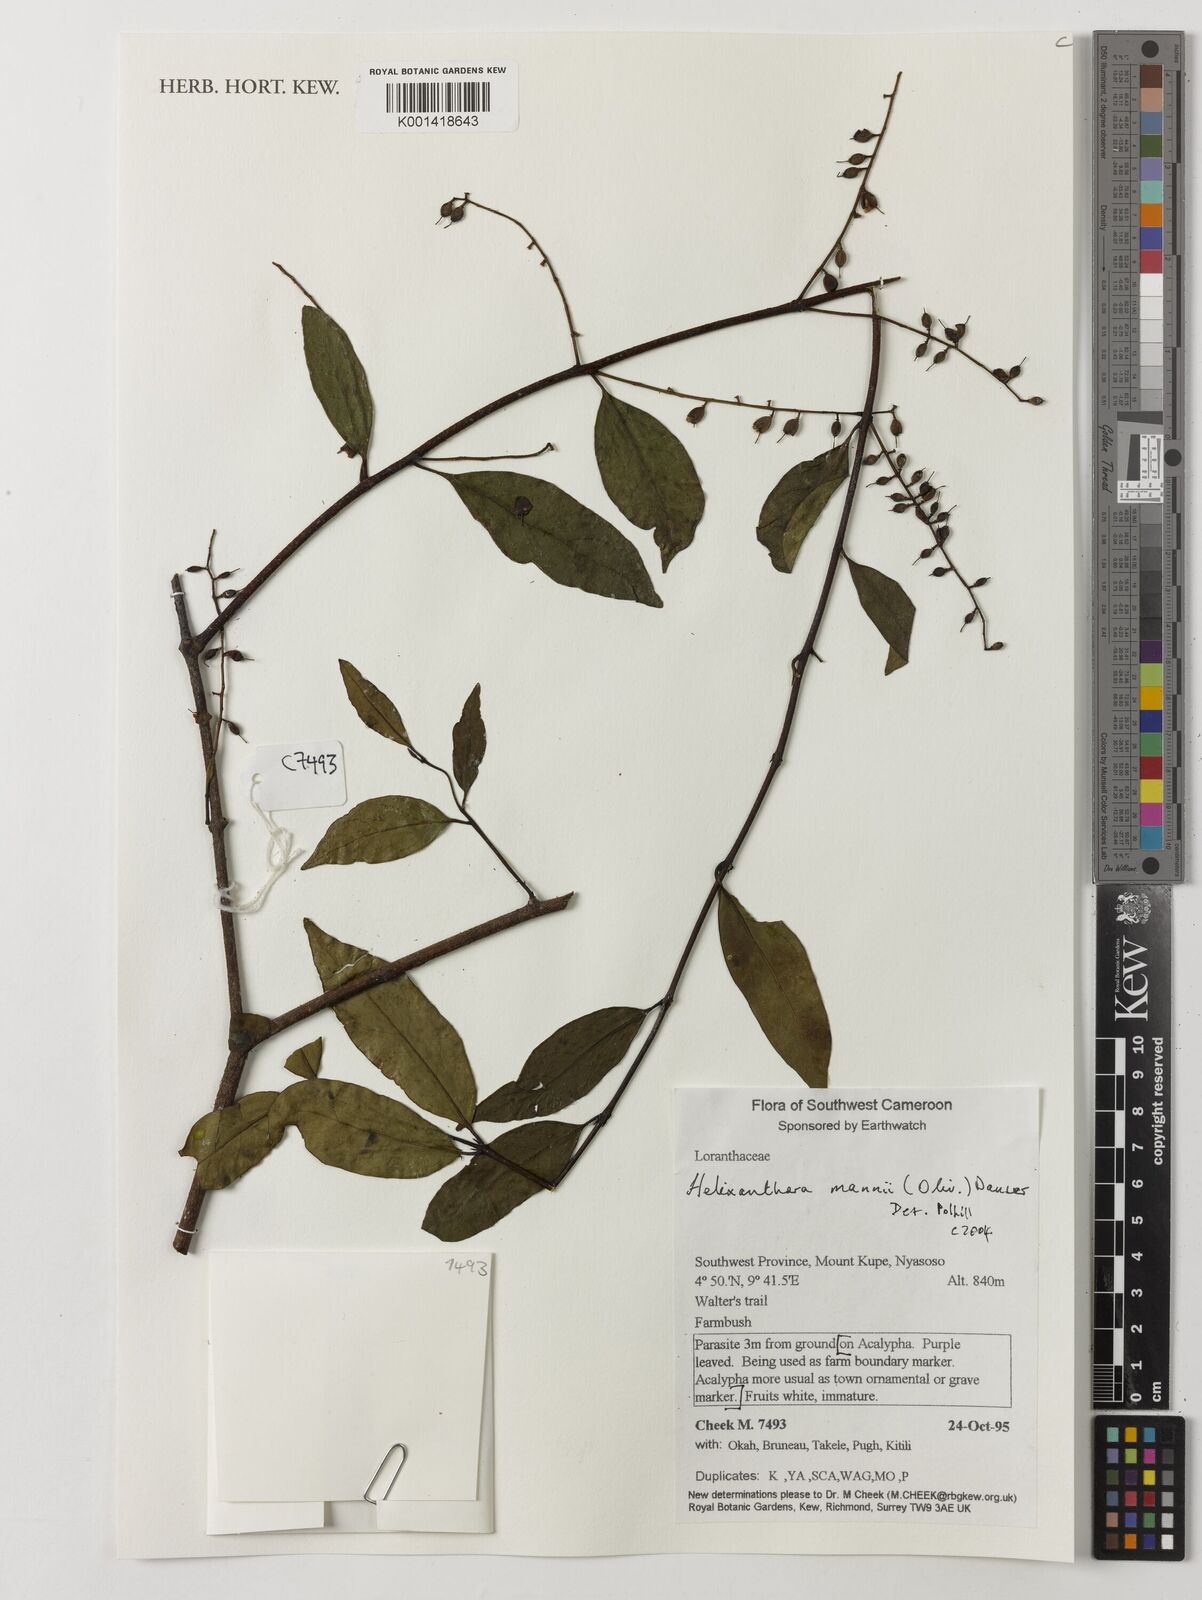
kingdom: Plantae
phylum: Tracheophyta
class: Magnoliopsida
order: Santalales
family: Loranthaceae
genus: Helixanthera
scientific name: Helixanthera mannii
